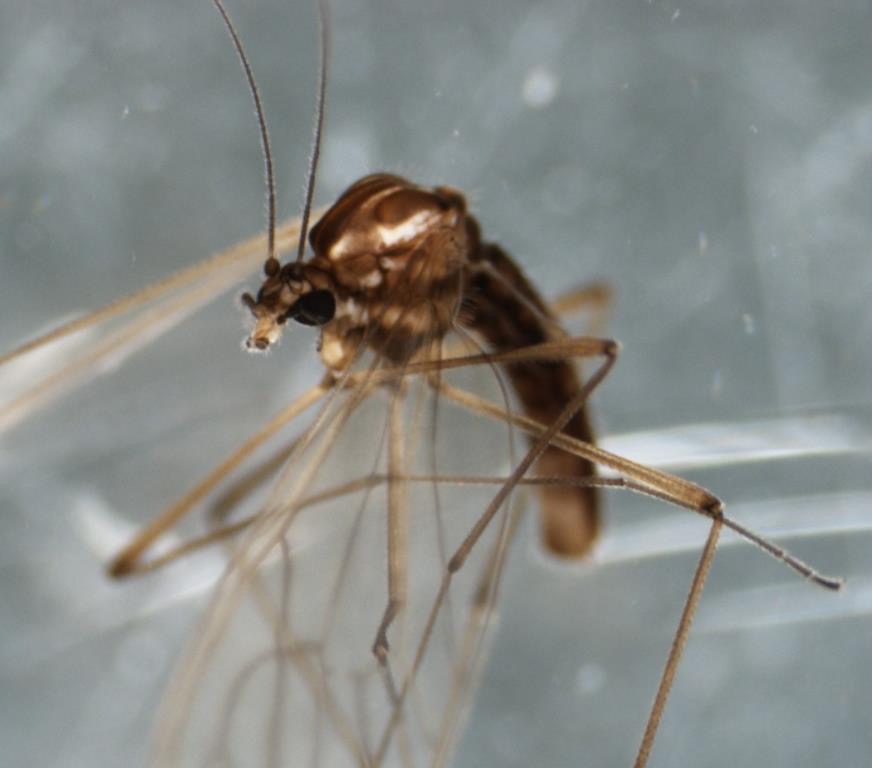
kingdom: Animalia
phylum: Arthropoda
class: Insecta
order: Diptera
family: Dixidae
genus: Dixella
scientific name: Dixella serotina
